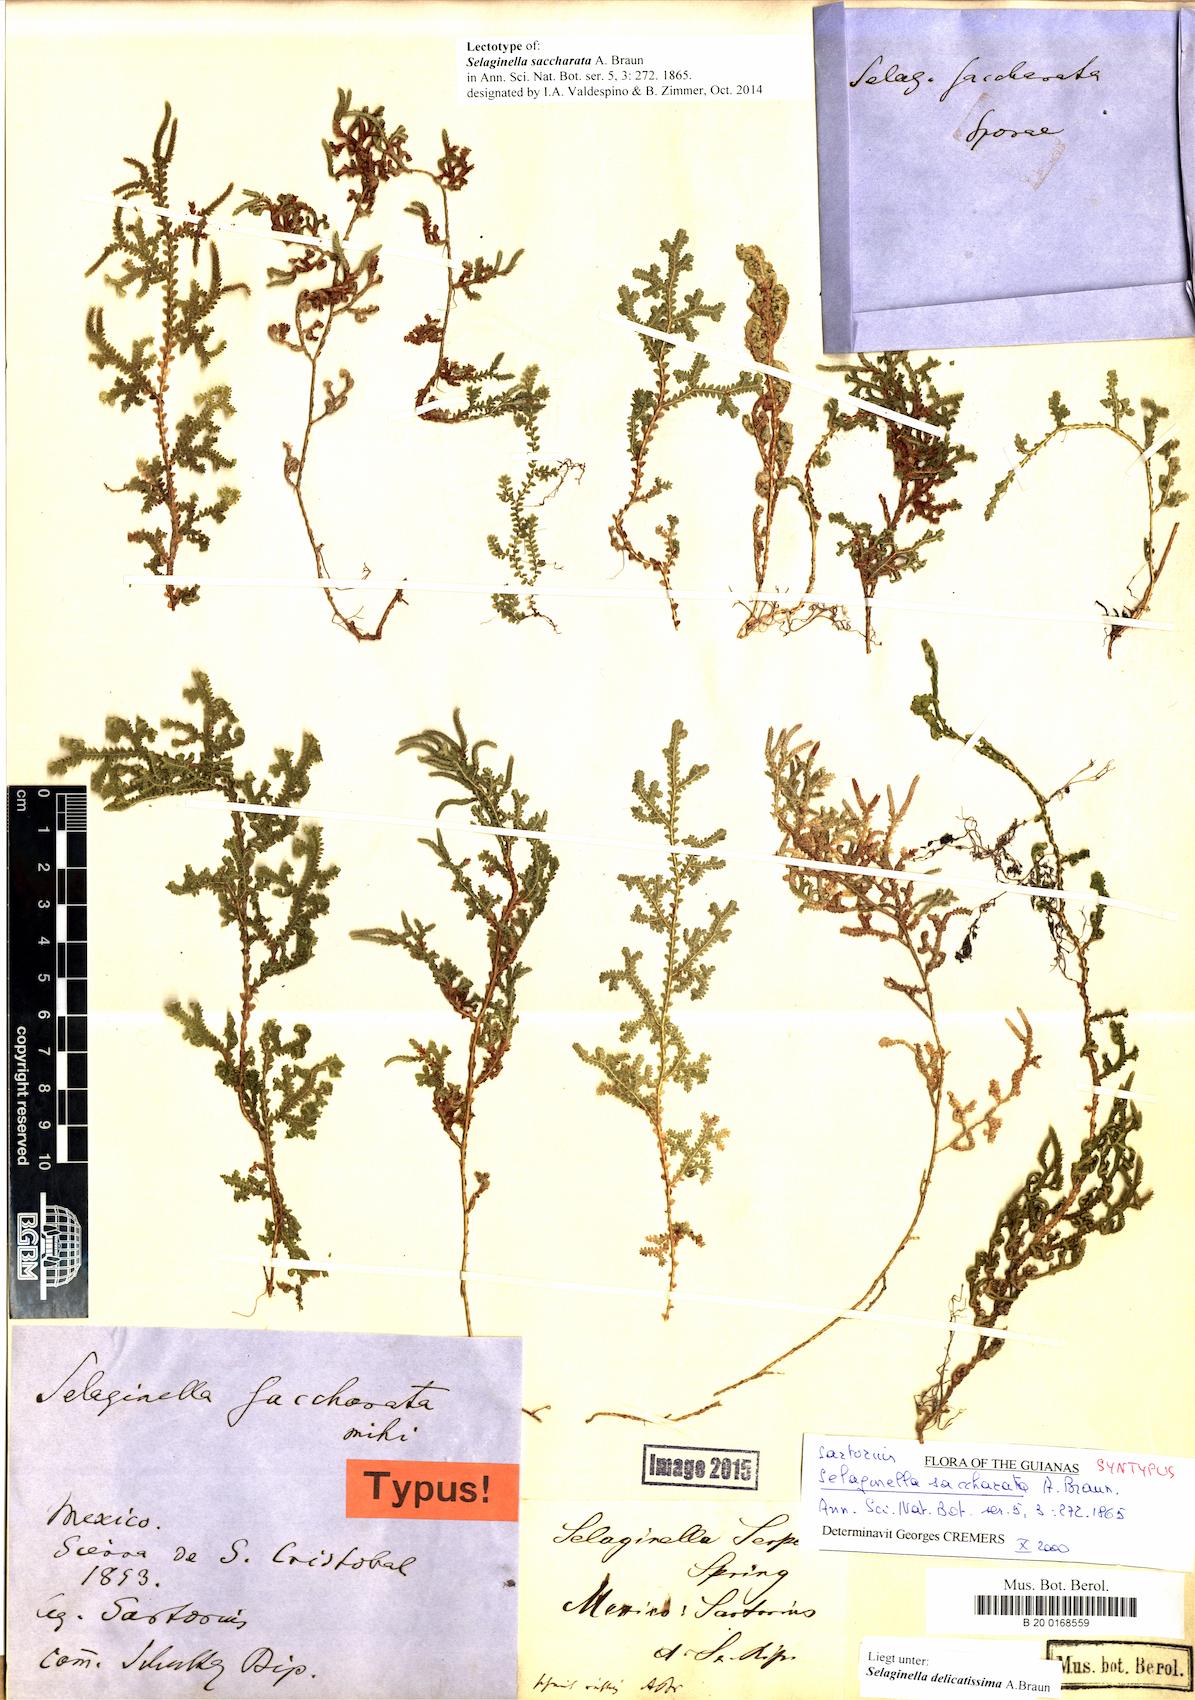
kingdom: Plantae
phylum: Tracheophyta
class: Lycopodiopsida
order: Selaginellales
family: Selaginellaceae
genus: Selaginella
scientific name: Selaginella delicatissima
